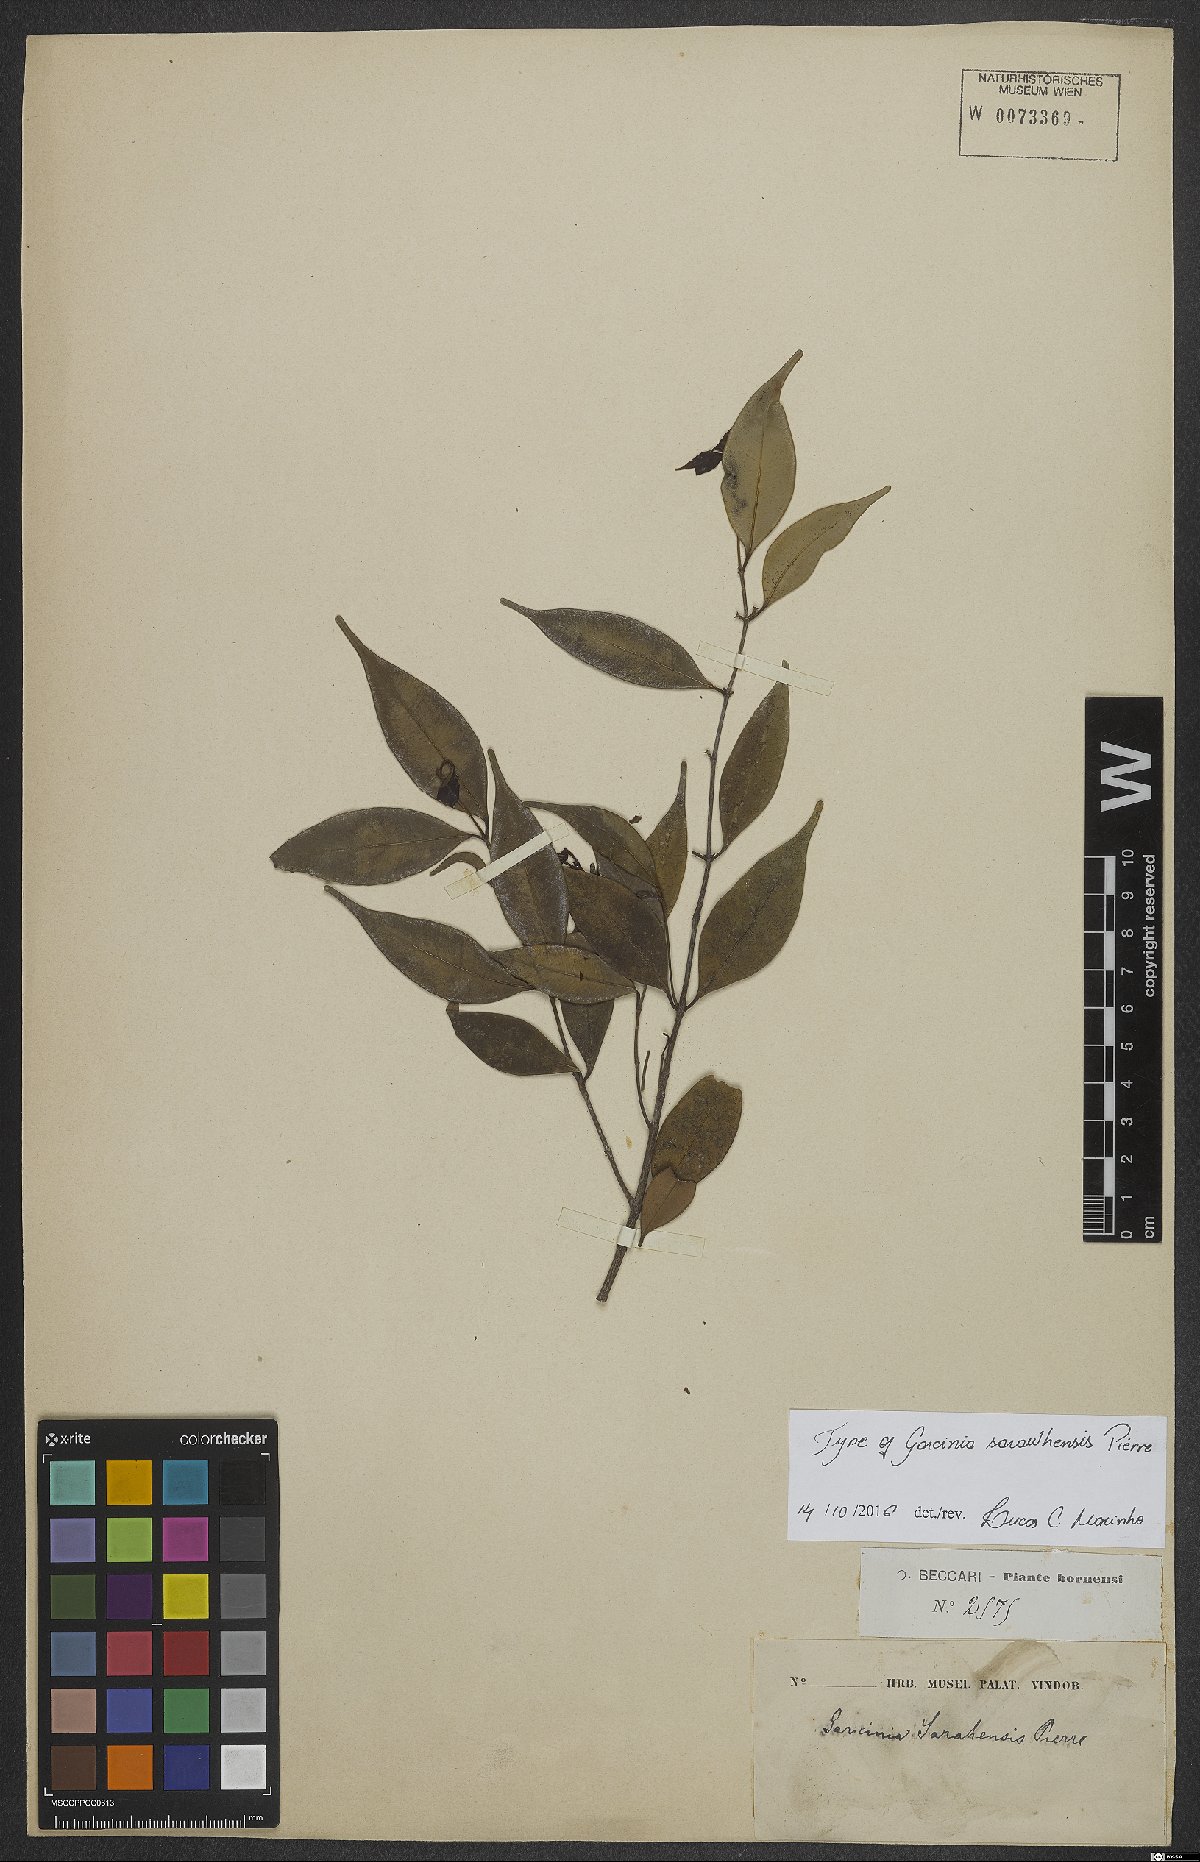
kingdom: Plantae
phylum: Tracheophyta
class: Magnoliopsida
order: Malpighiales
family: Clusiaceae
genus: Garcinia
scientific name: Garcinia sarawhensis
